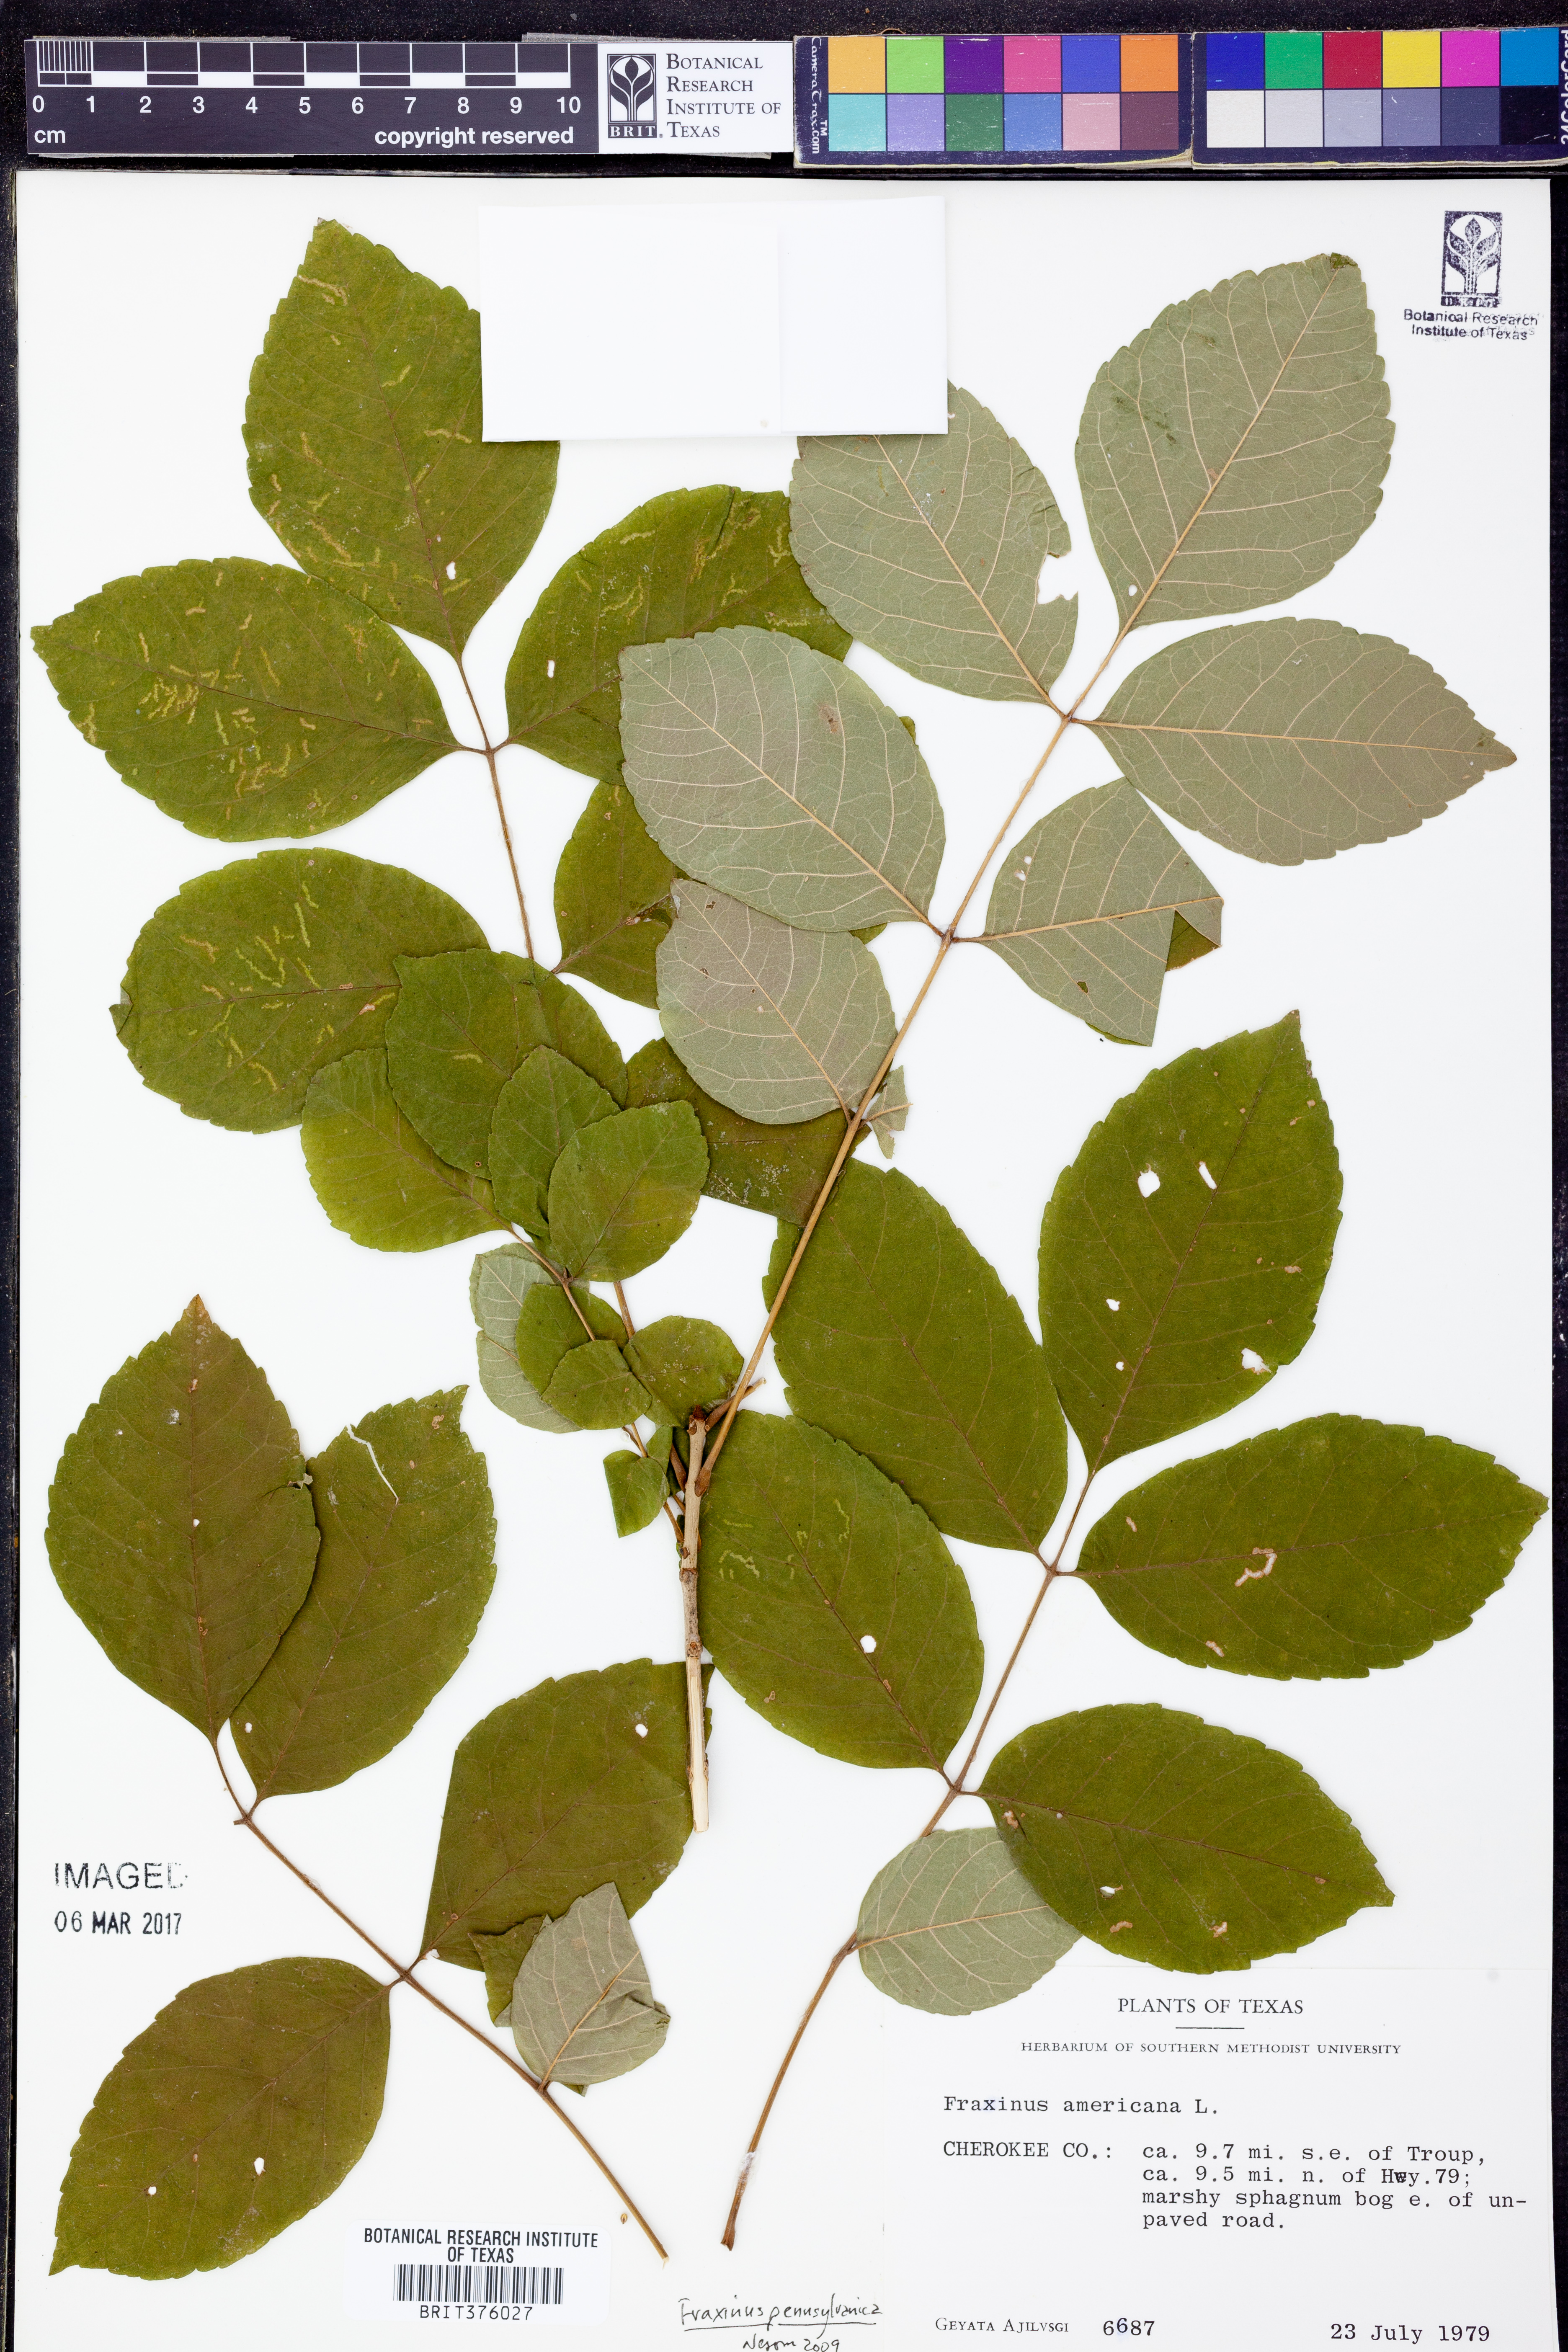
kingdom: Plantae
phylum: Tracheophyta
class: Magnoliopsida
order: Lamiales
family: Oleaceae
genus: Fraxinus
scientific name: Fraxinus pennsylvanica
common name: Green ash
